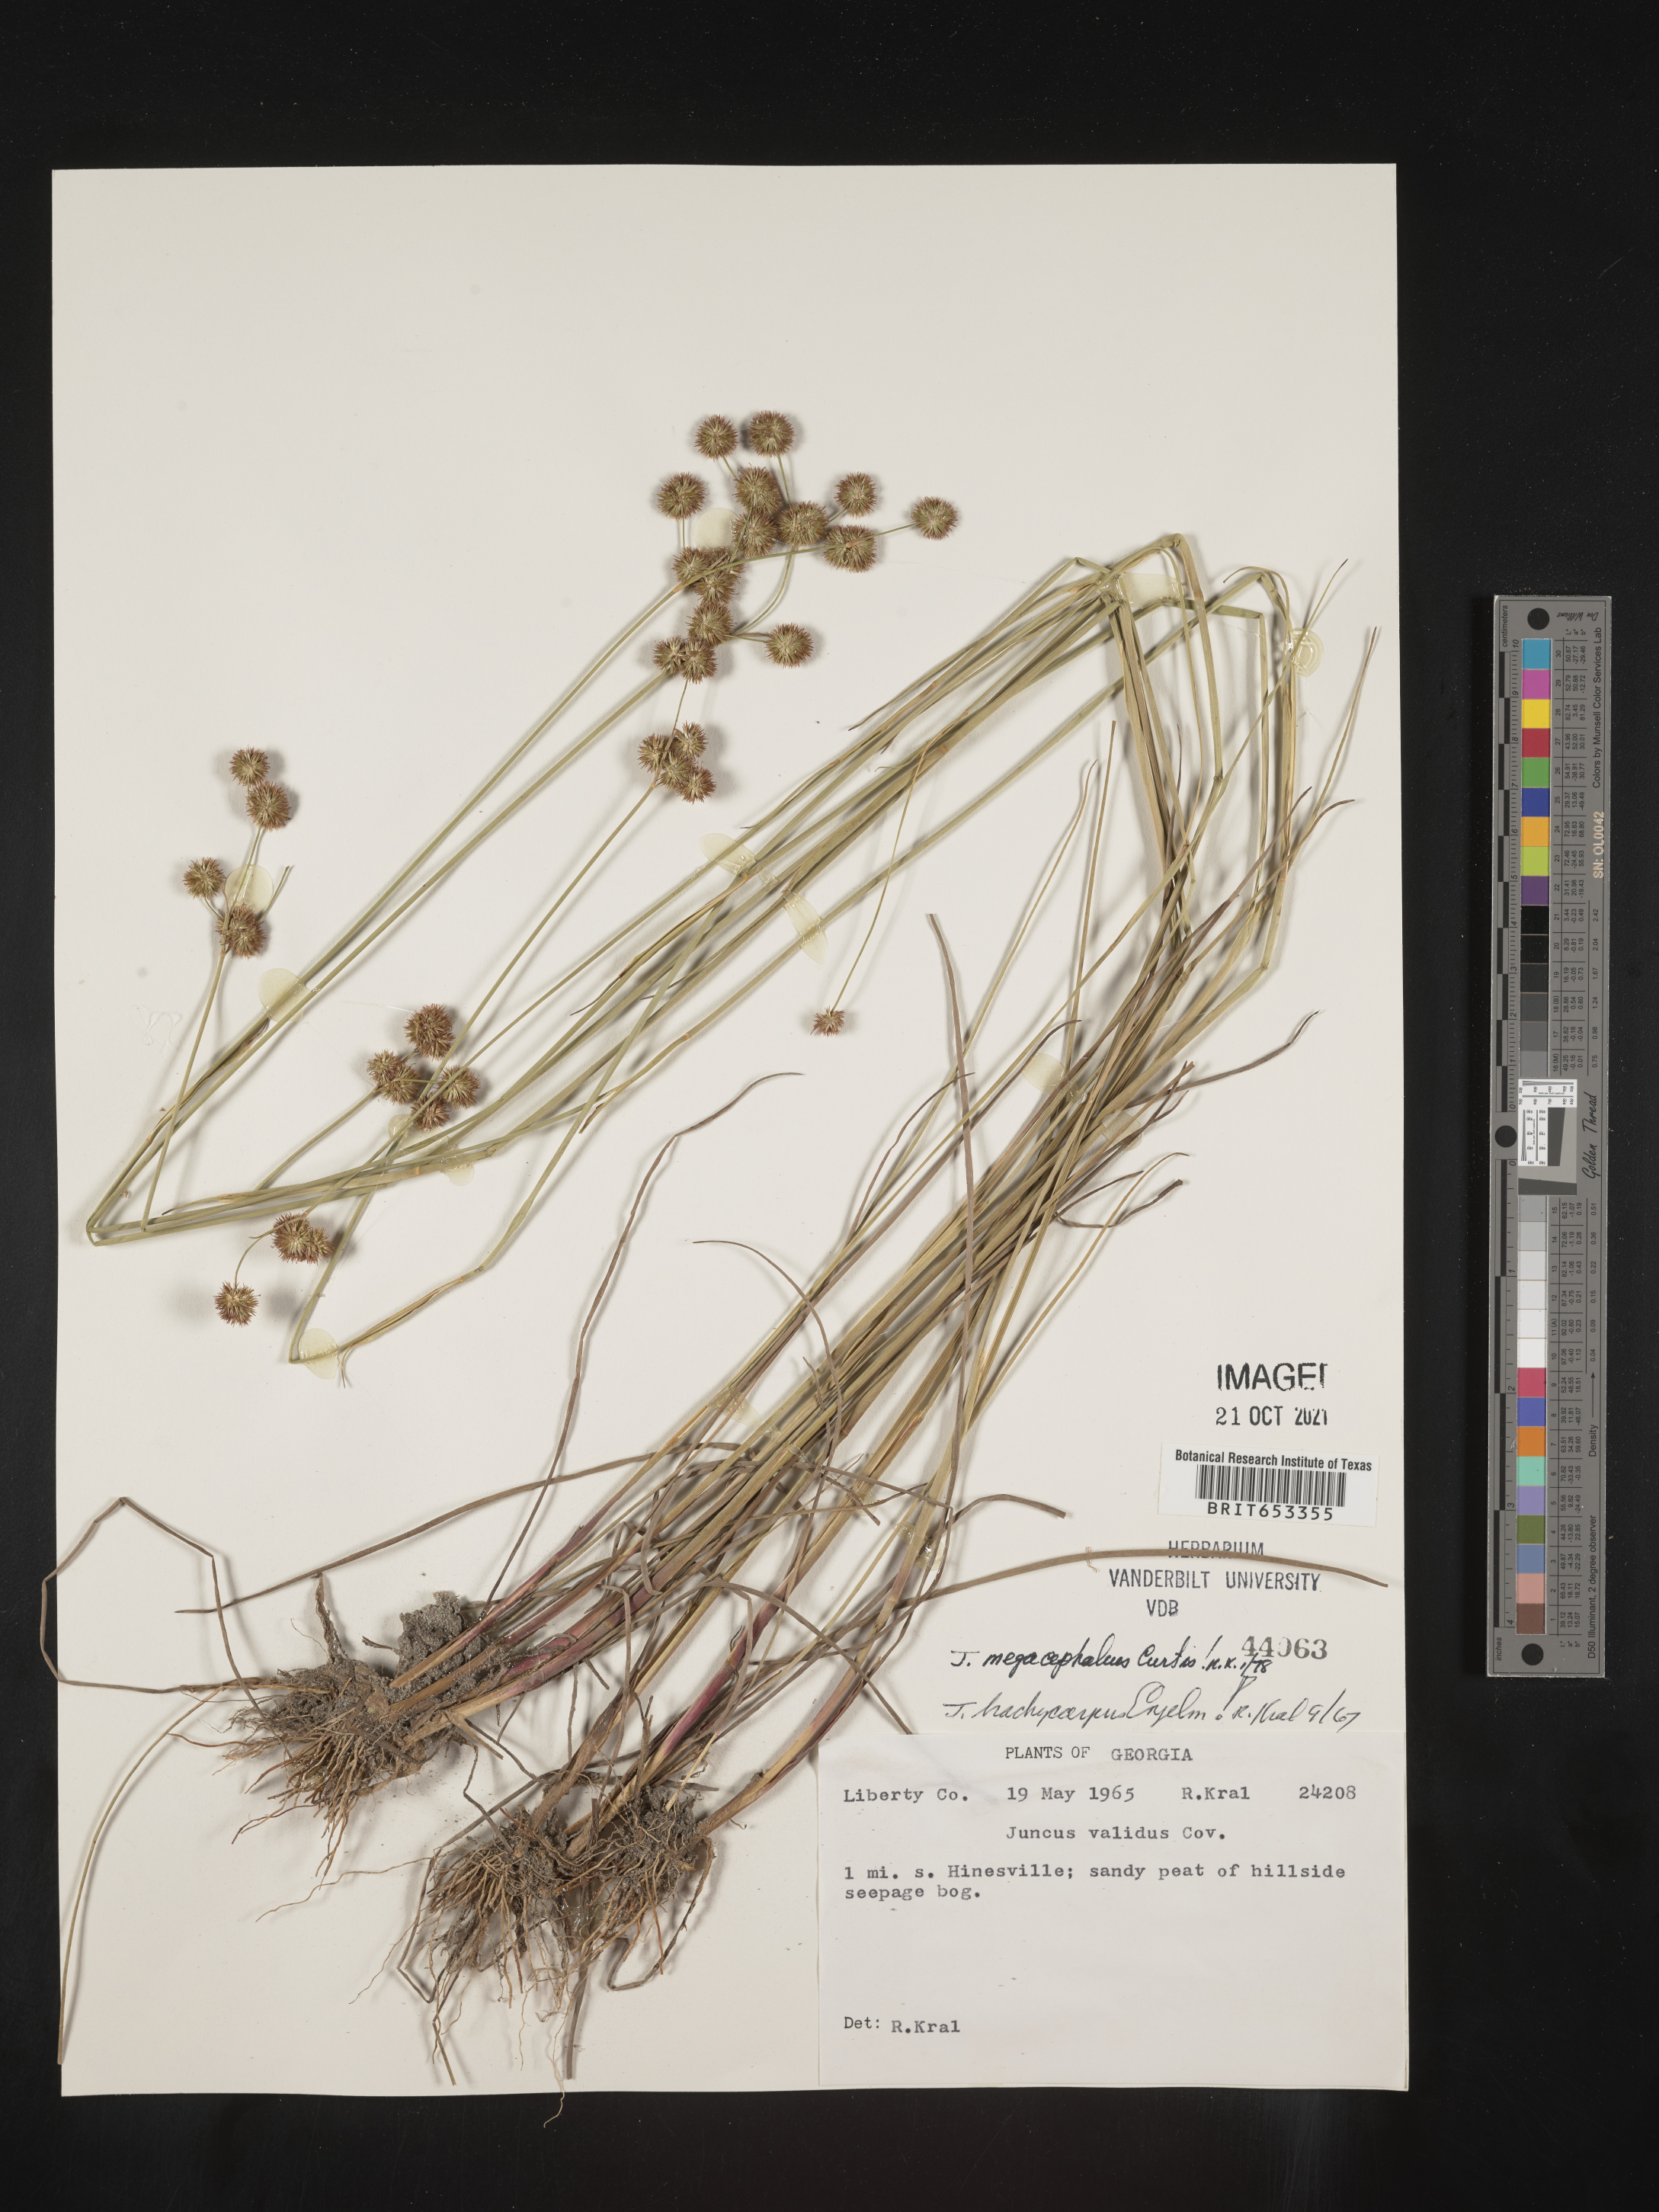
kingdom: Plantae
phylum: Tracheophyta
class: Liliopsida
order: Poales
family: Juncaceae
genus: Juncus
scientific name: Juncus megacephalus
